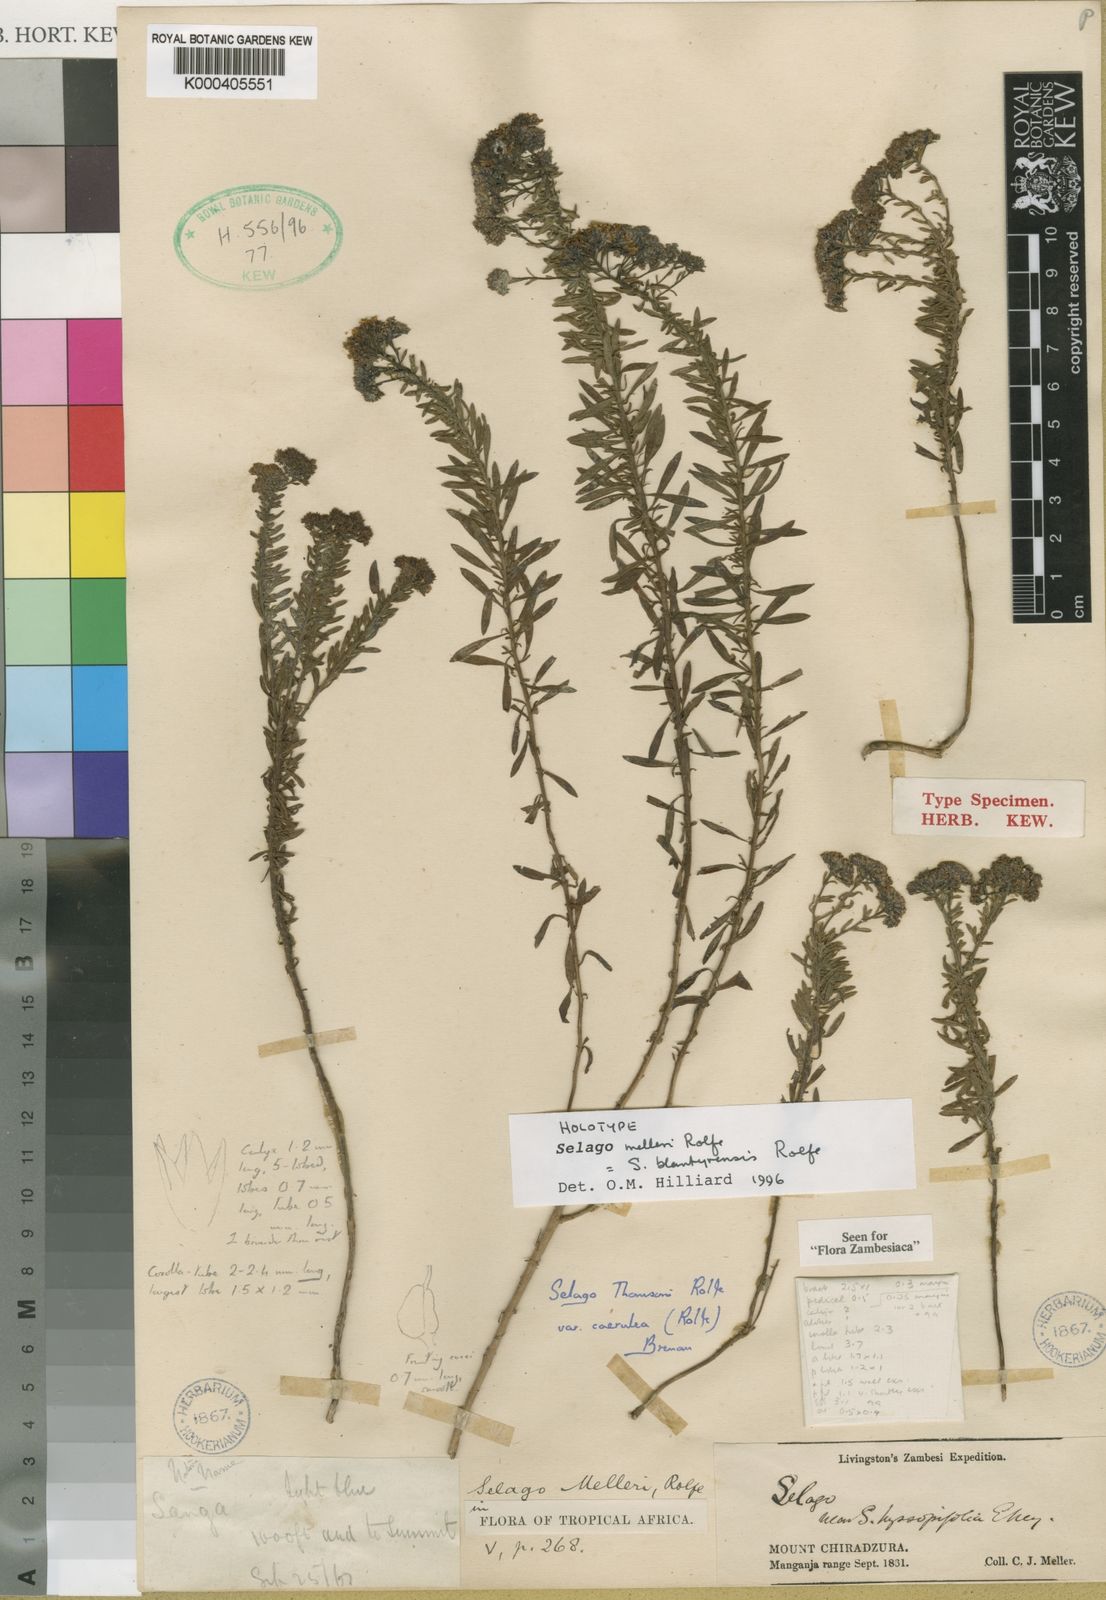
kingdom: Plantae
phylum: Tracheophyta
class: Magnoliopsida
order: Lamiales
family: Scrophulariaceae
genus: Selago
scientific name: Selago blantyrensis
